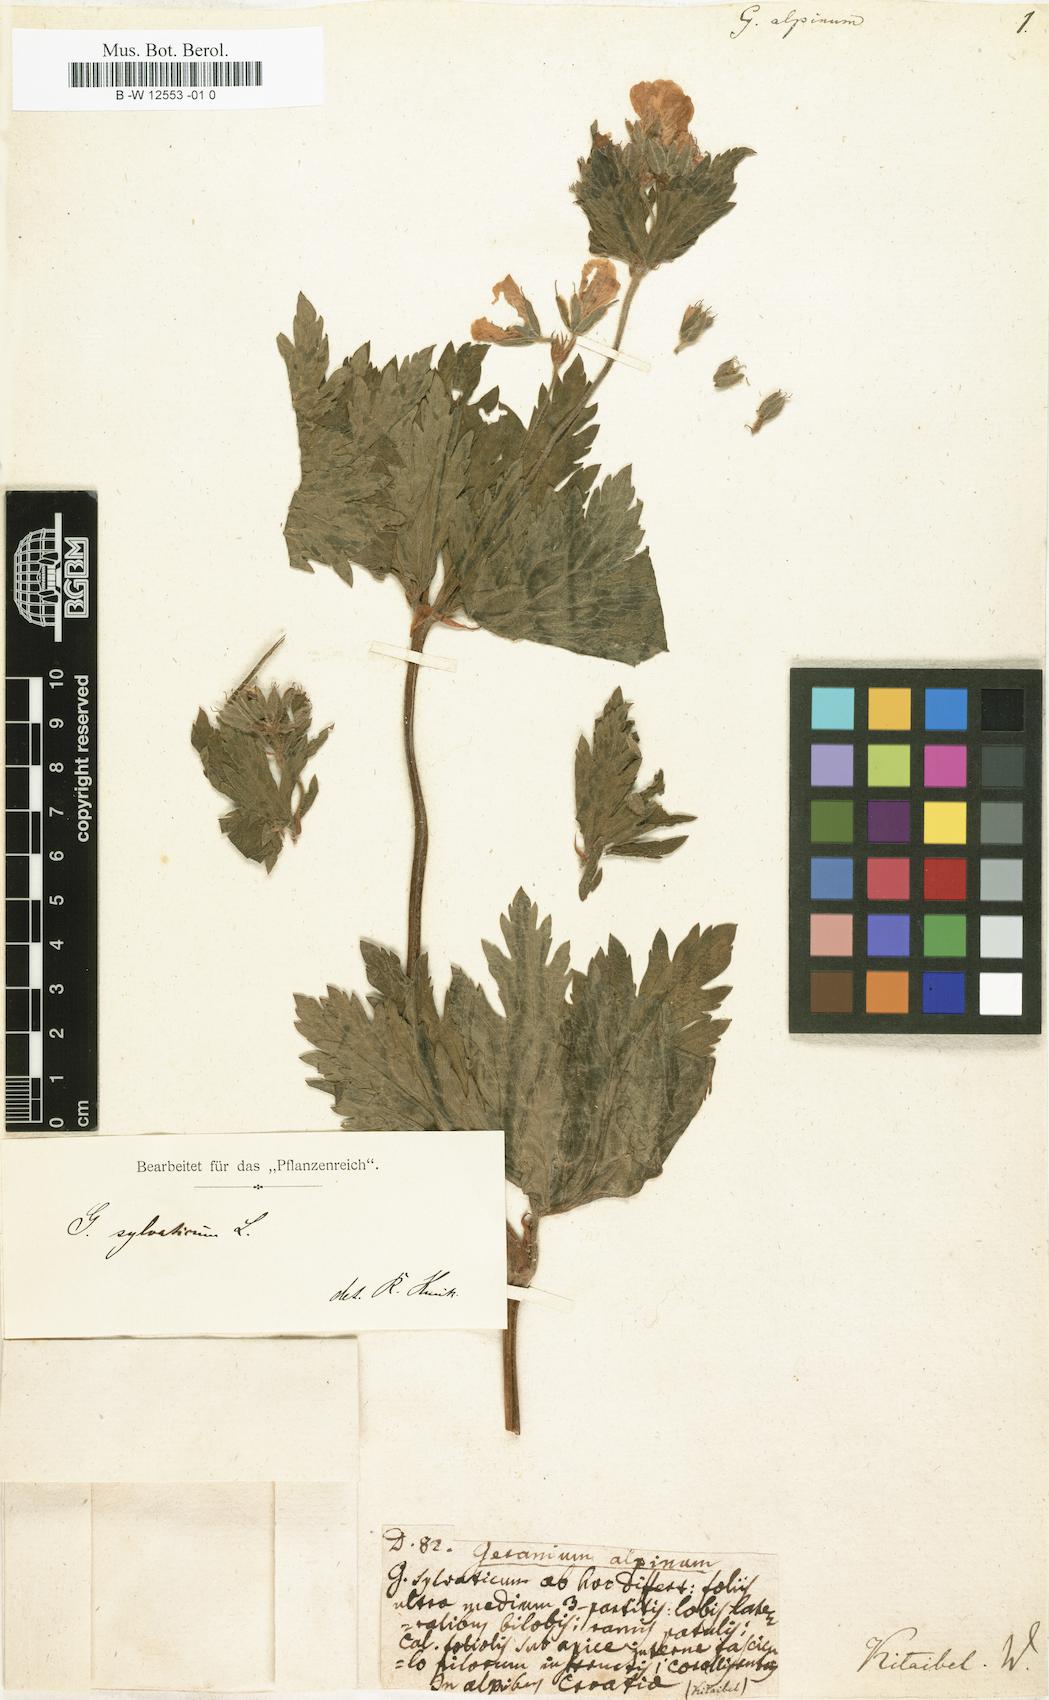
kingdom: Plantae
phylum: Tracheophyta
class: Magnoliopsida
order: Geraniales
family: Geraniaceae
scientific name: Geraniaceae
